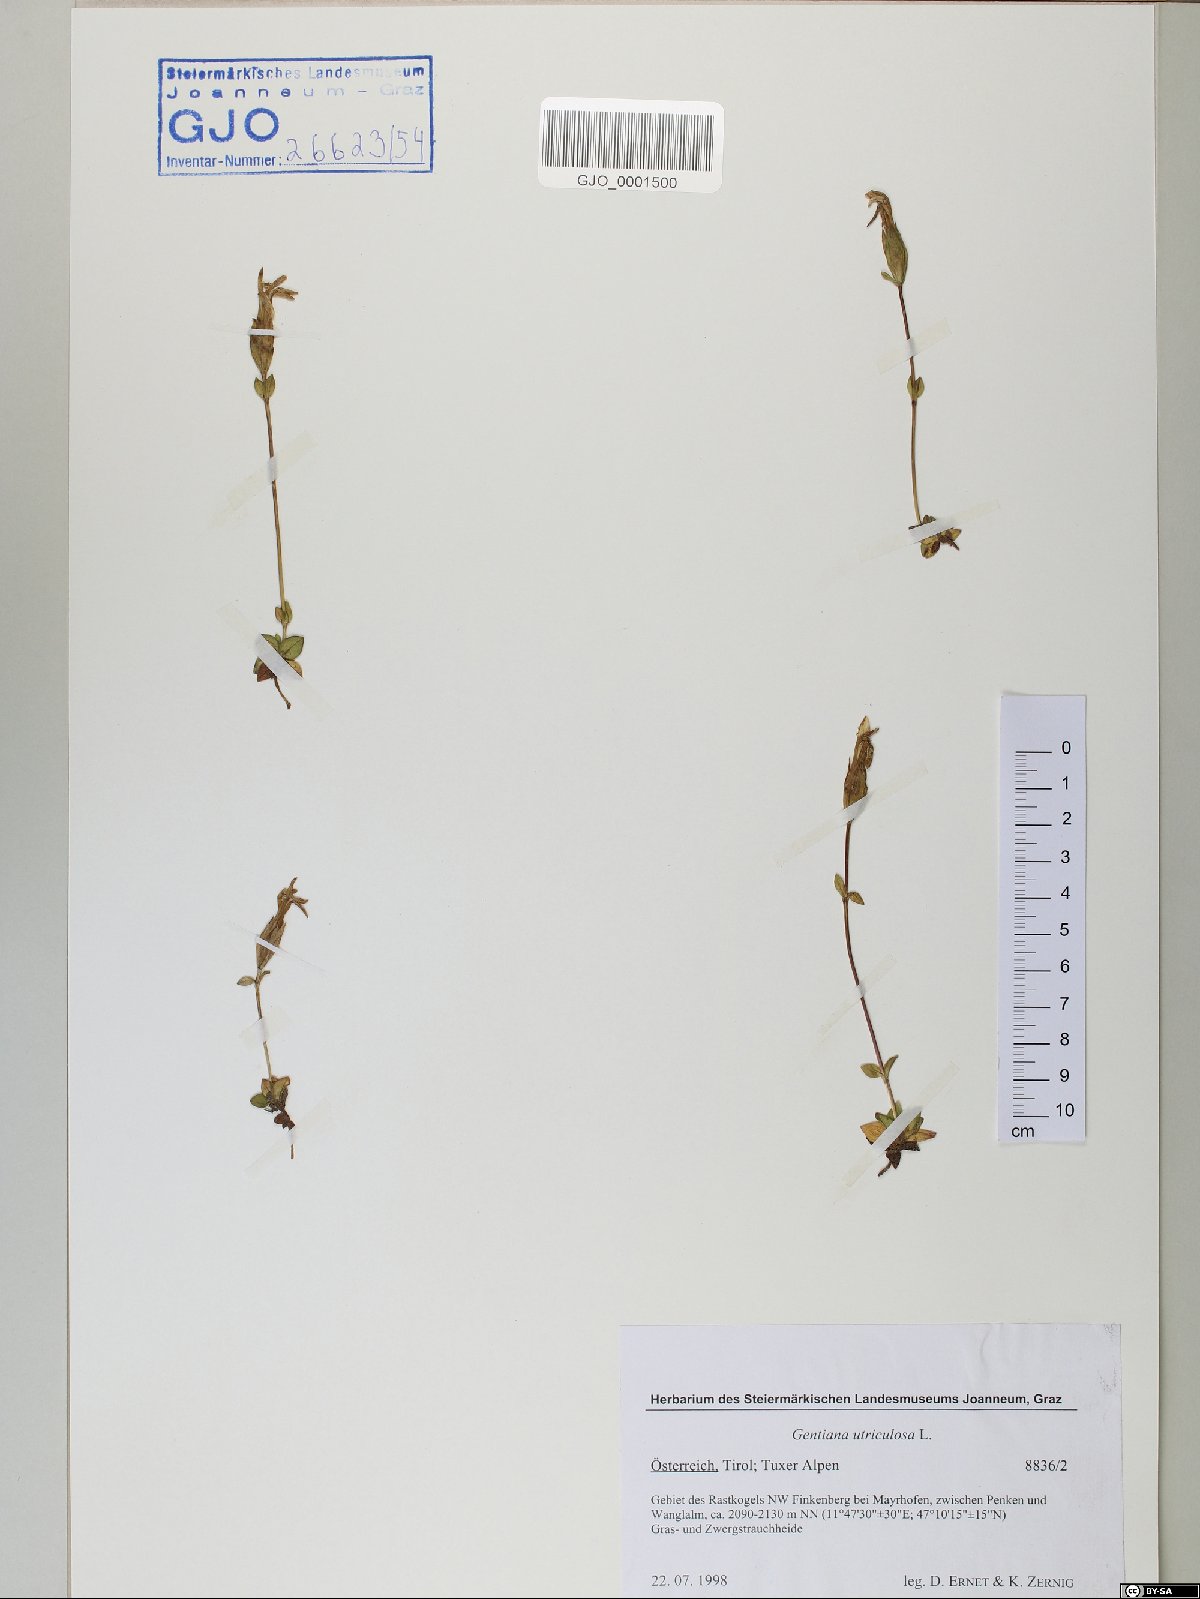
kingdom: Plantae
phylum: Tracheophyta
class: Magnoliopsida
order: Gentianales
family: Gentianaceae
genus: Gentiana
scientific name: Gentiana utriculosa
